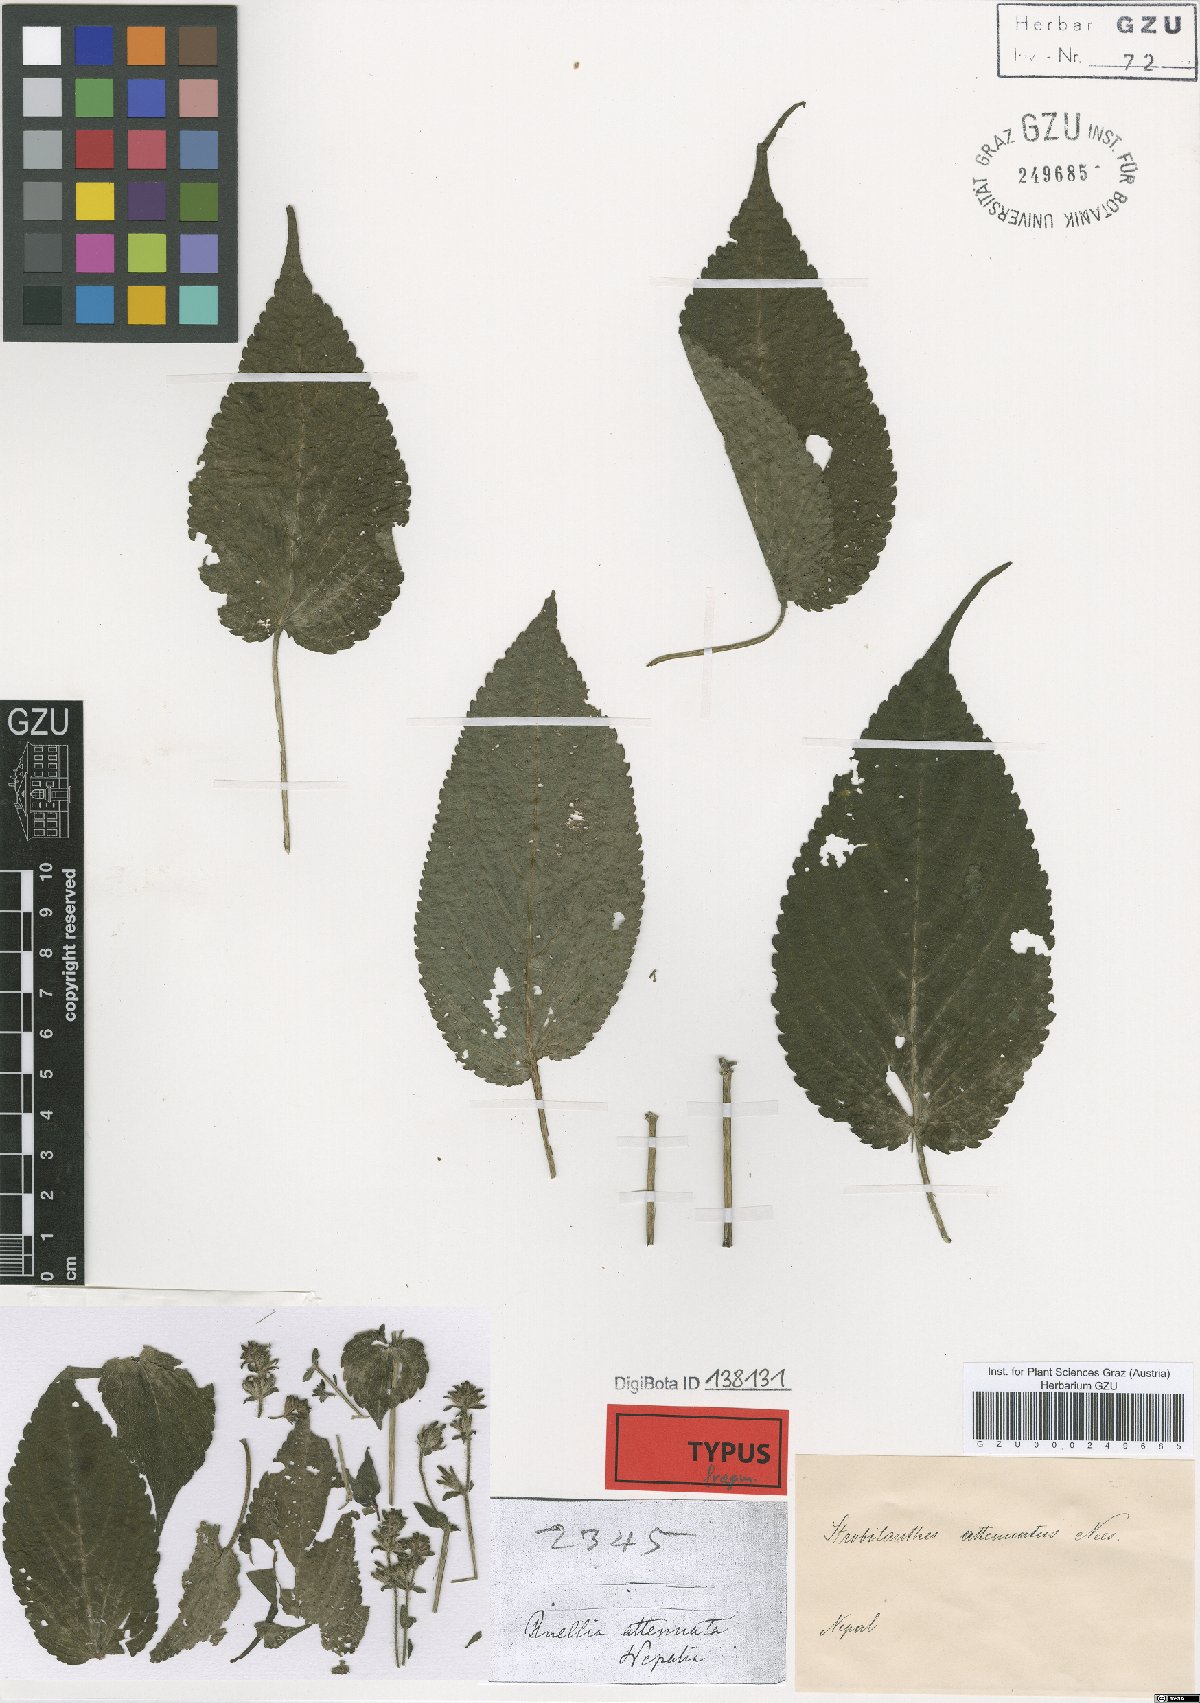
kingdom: Plantae
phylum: Tracheophyta
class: Magnoliopsida
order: Lamiales
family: Acanthaceae
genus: Strobilanthes
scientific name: Strobilanthes attenuata
